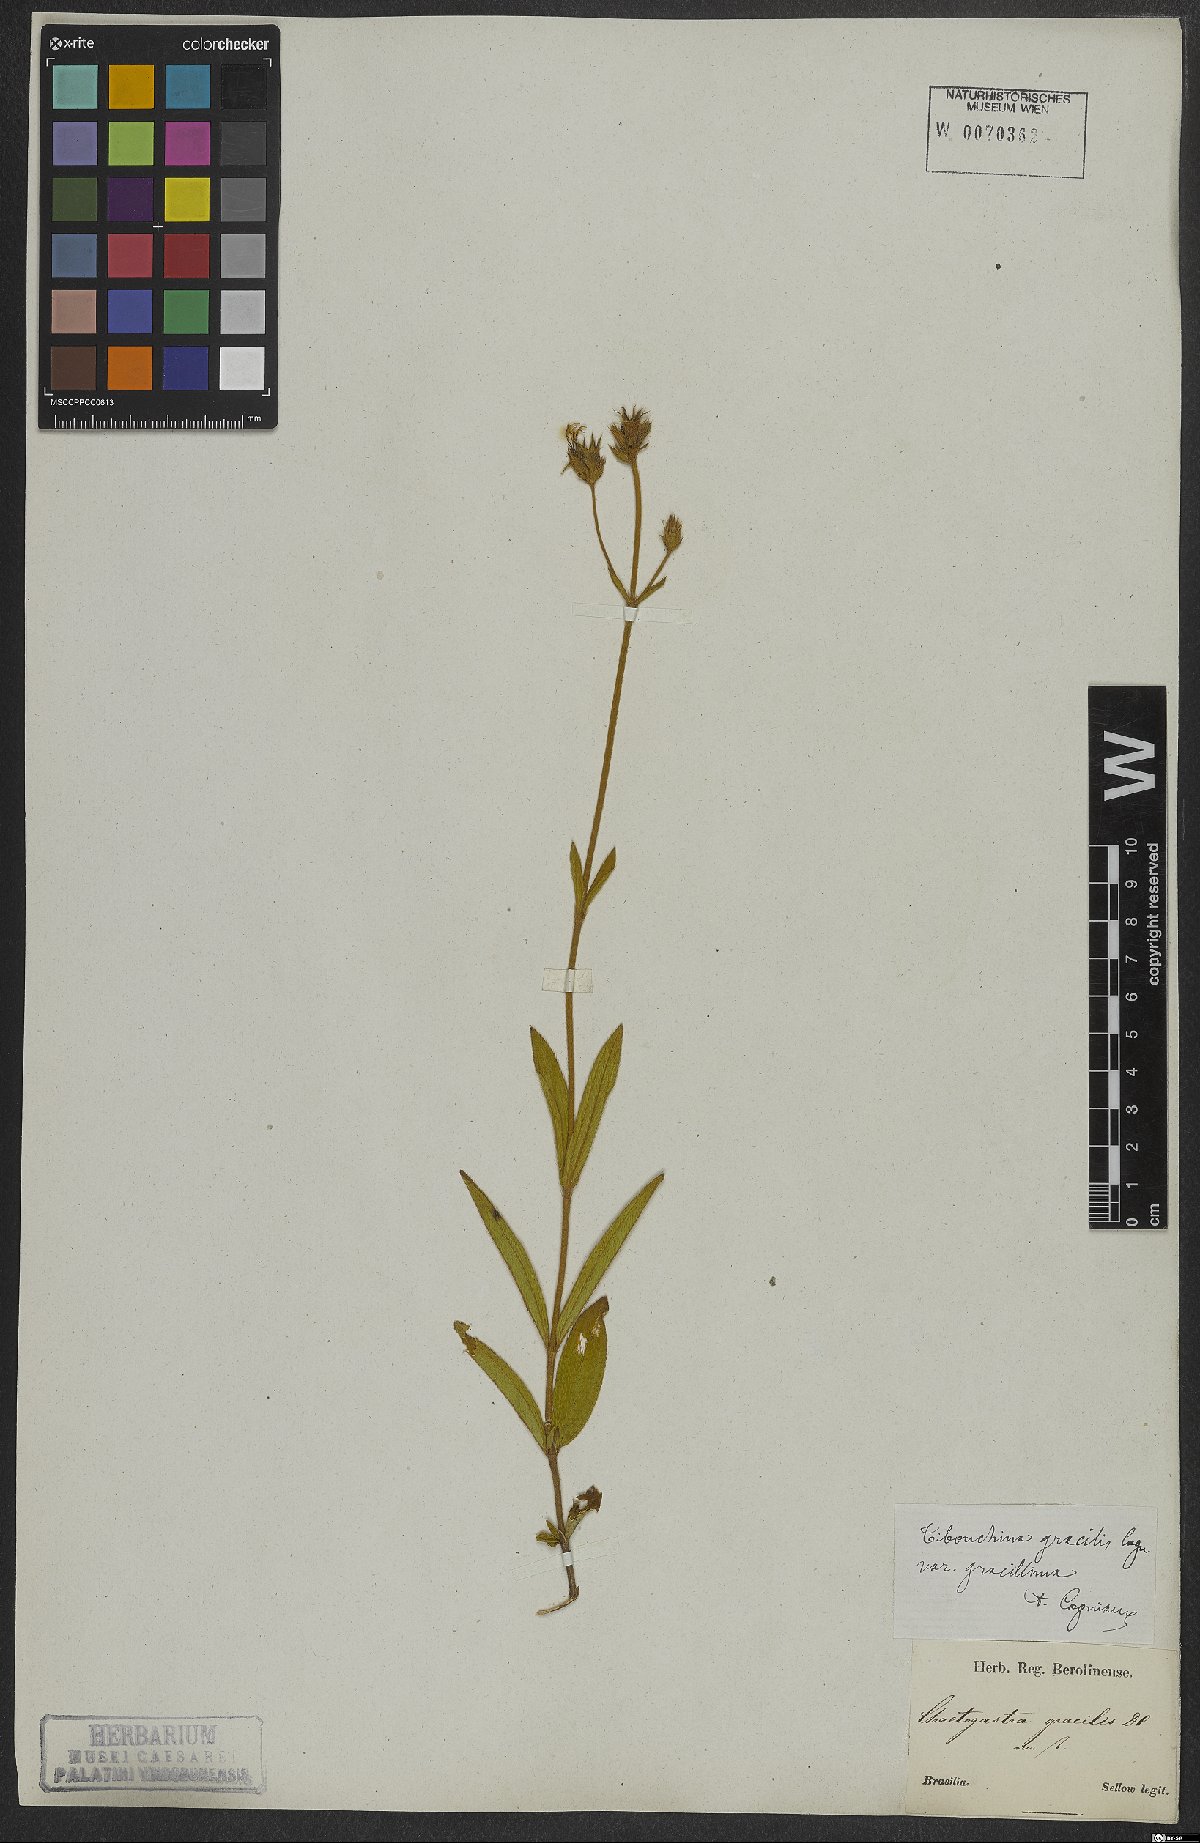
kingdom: Plantae
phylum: Tracheophyta
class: Magnoliopsida
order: Myrtales
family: Melastomataceae
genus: Chaetogastra
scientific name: Chaetogastra gracilis
